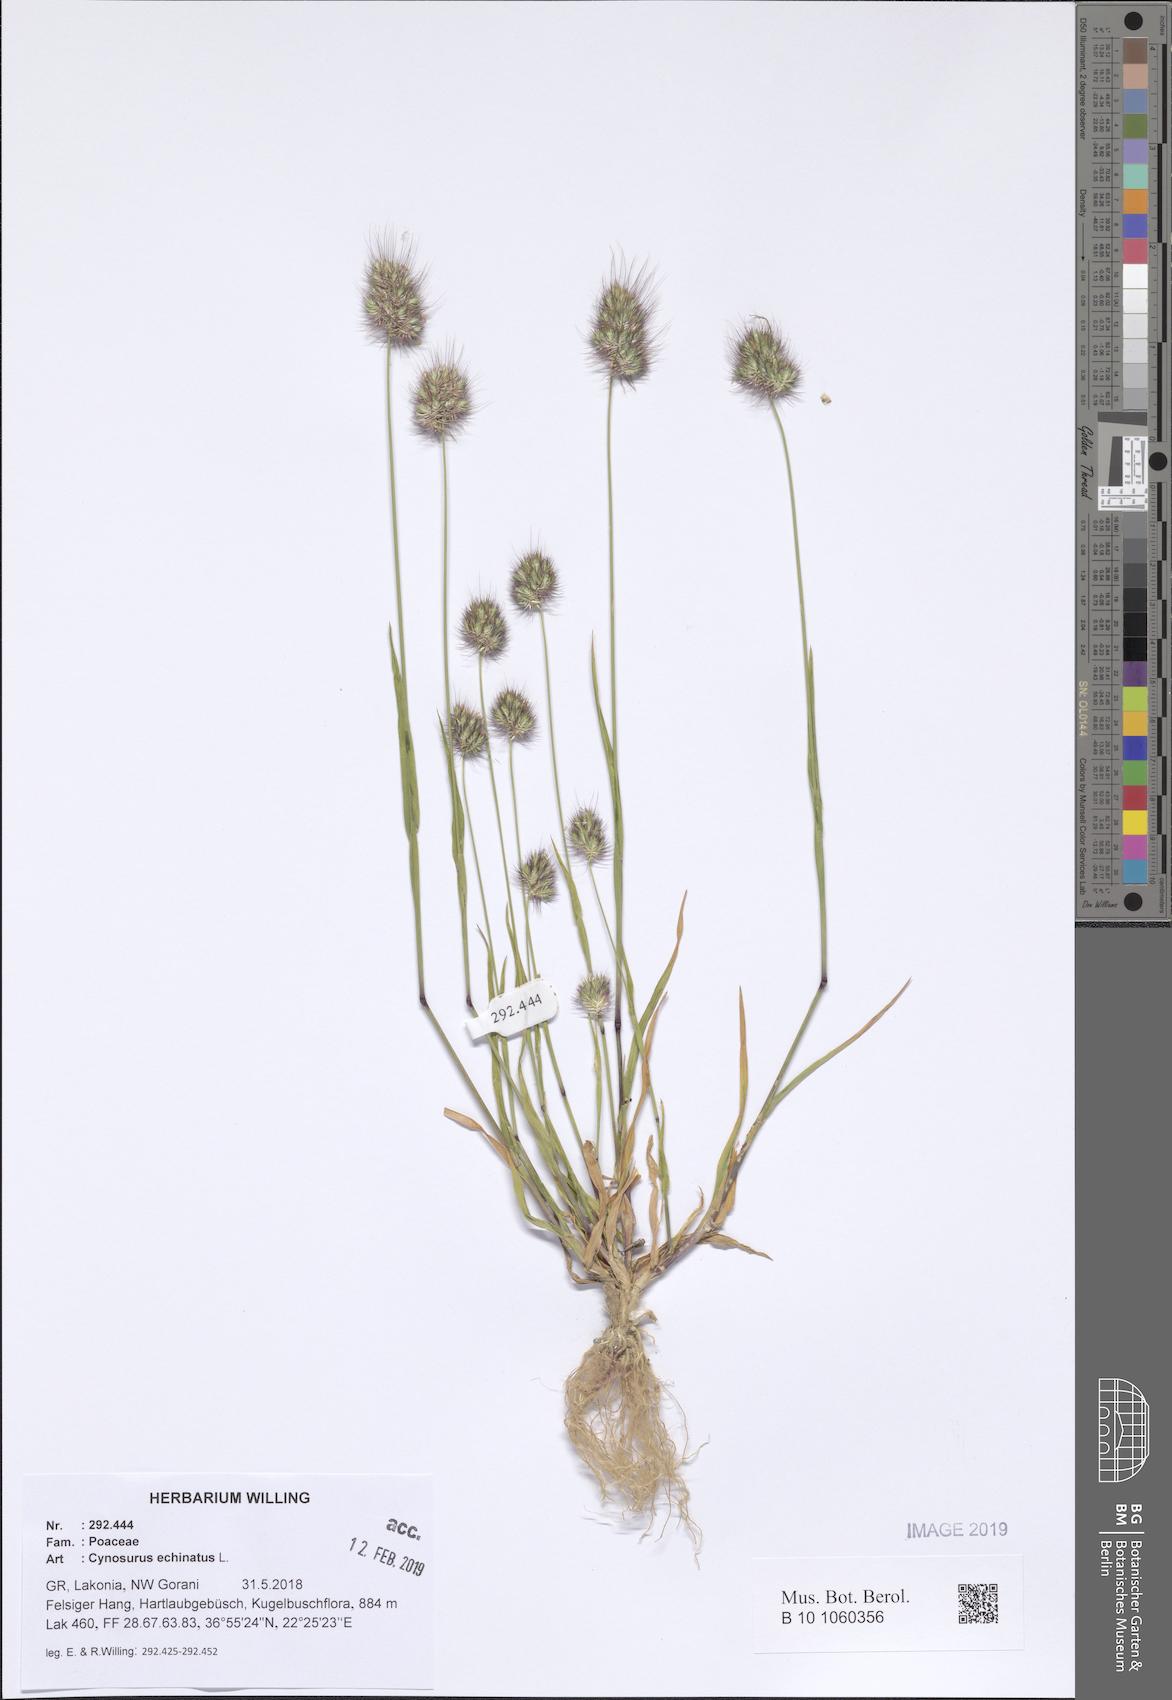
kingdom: Plantae
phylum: Tracheophyta
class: Liliopsida
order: Poales
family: Poaceae
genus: Cynosurus
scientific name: Cynosurus echinatus
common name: Rough dog's-tail
